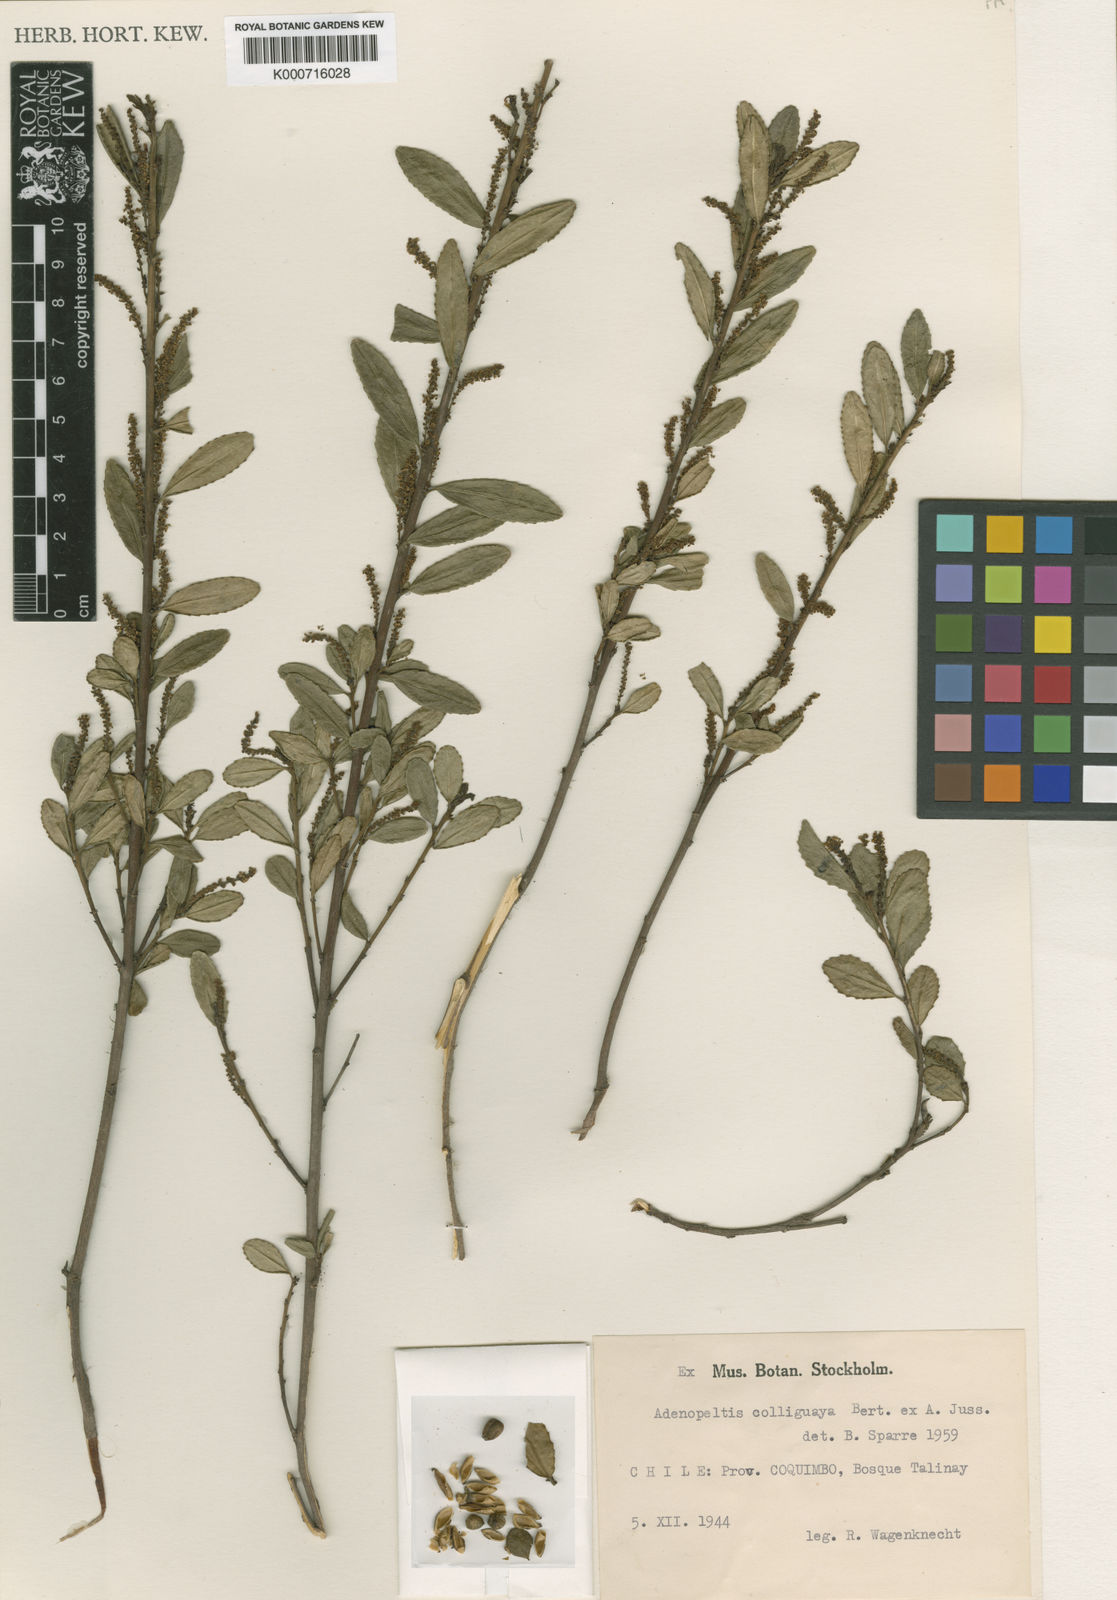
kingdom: Plantae
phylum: Tracheophyta
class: Magnoliopsida
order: Malpighiales
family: Euphorbiaceae
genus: Adenopeltis
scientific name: Adenopeltis
